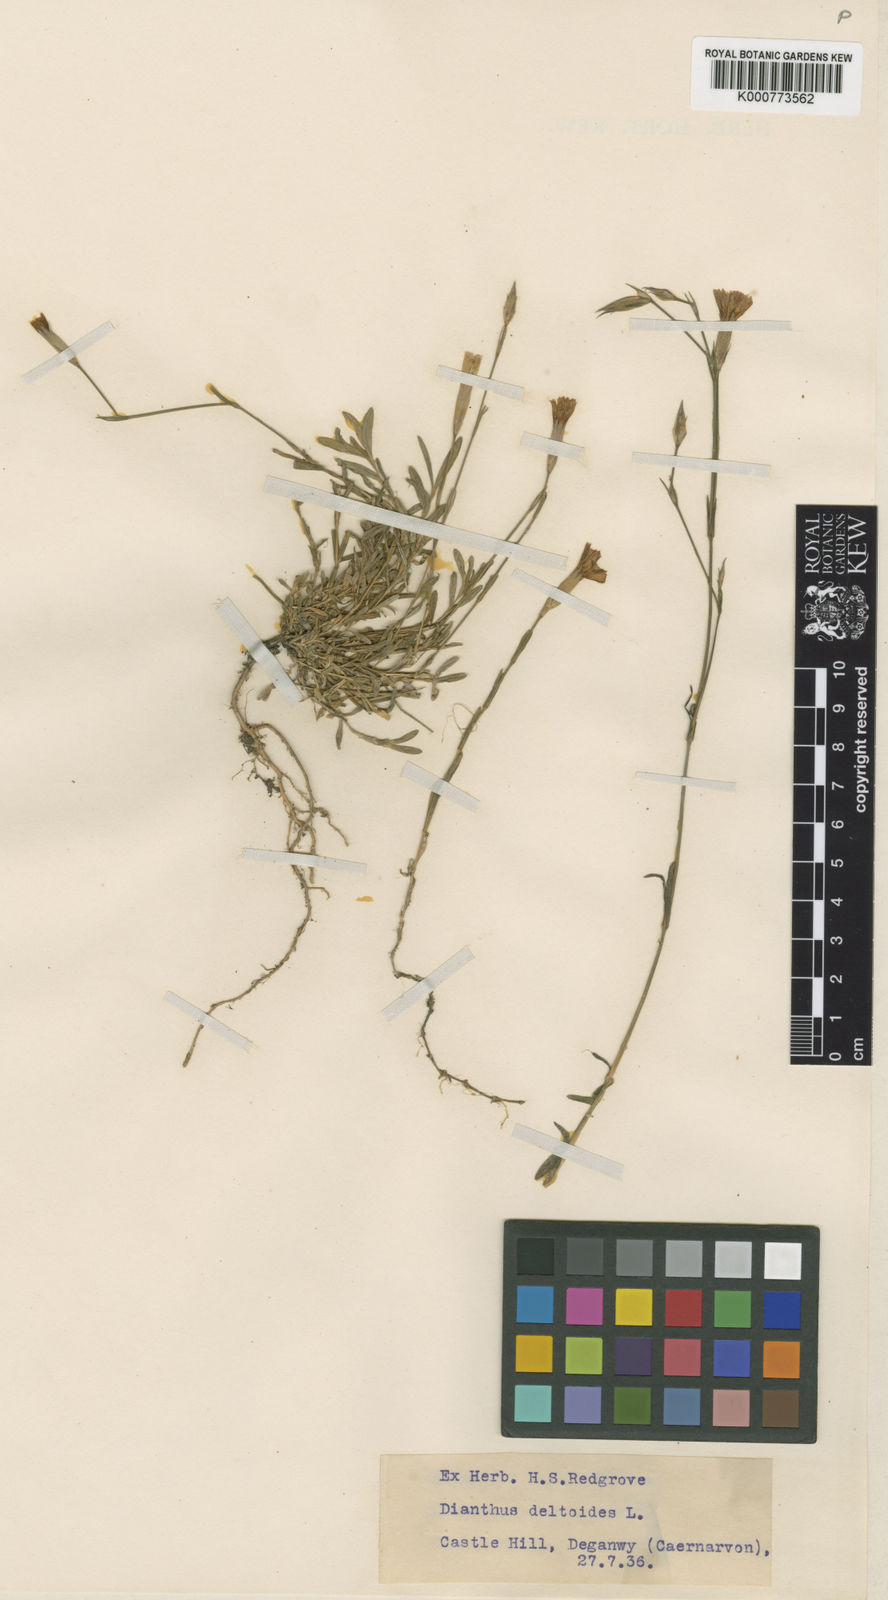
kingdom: Plantae
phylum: Tracheophyta
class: Magnoliopsida
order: Caryophyllales
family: Caryophyllaceae
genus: Dianthus
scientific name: Dianthus deltoides
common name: Maiden pink
